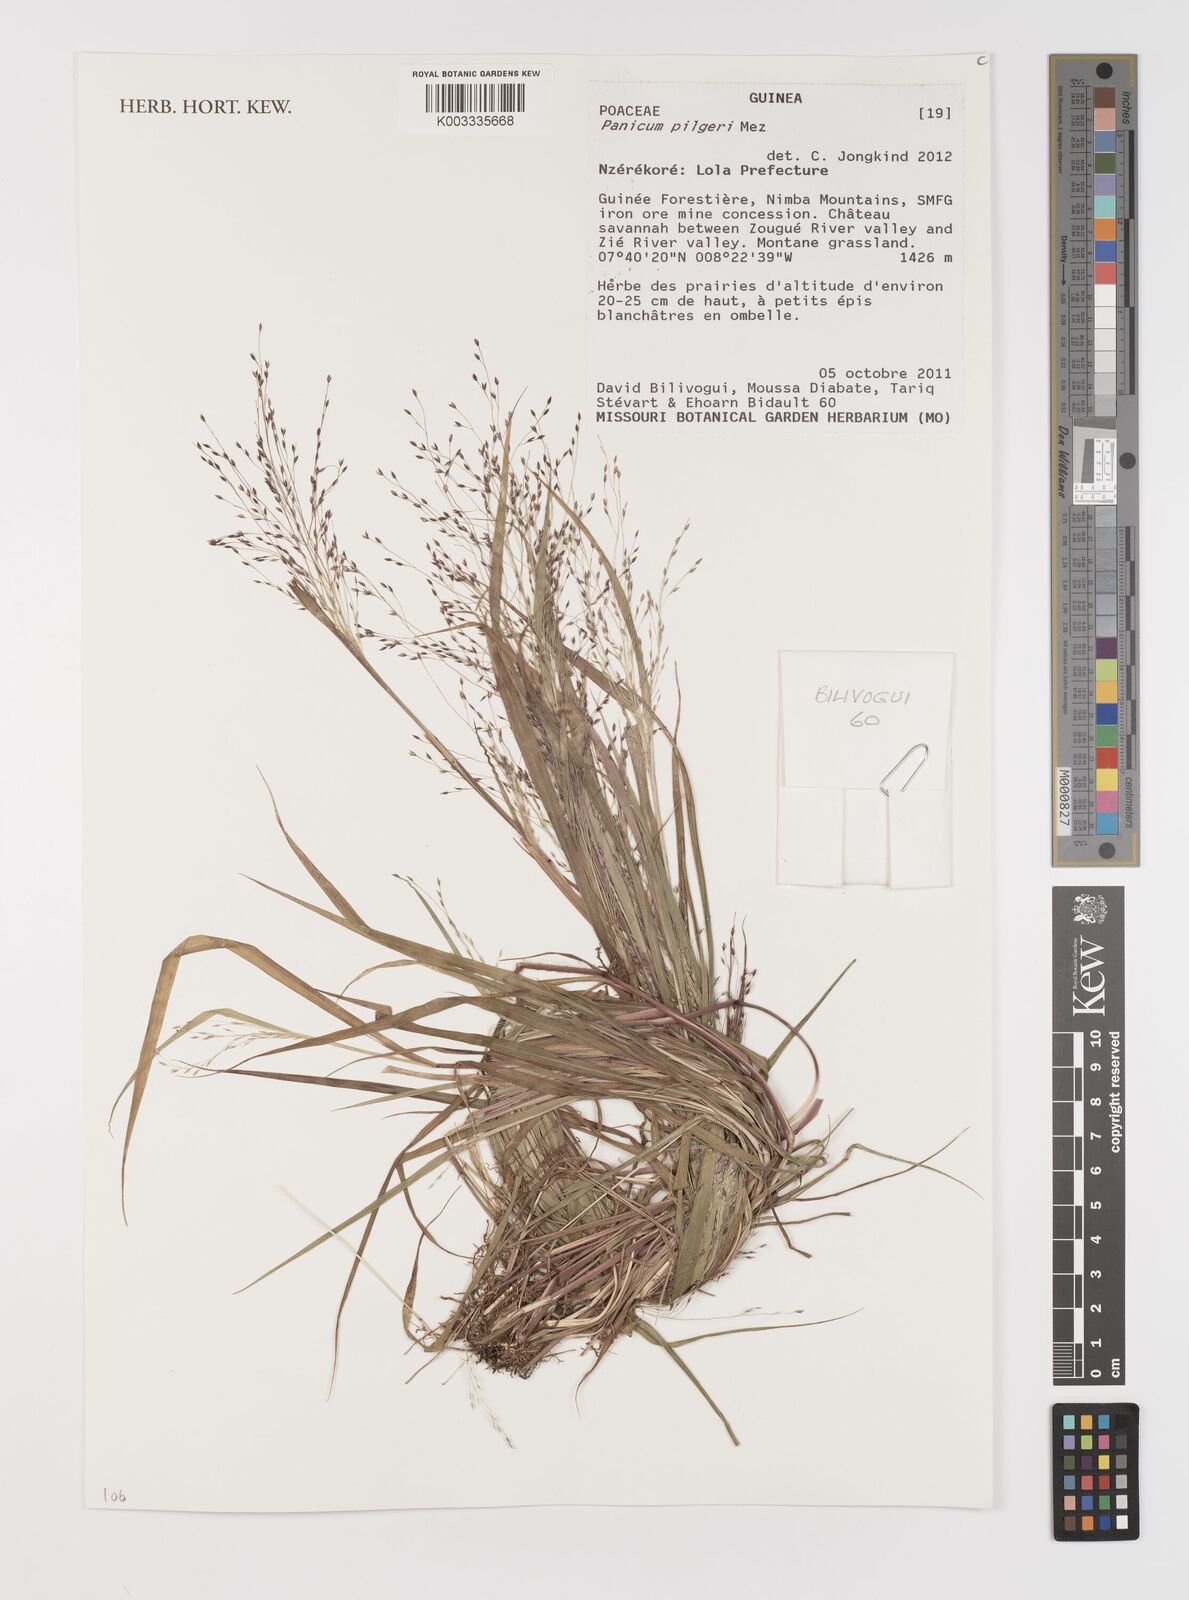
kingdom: Plantae
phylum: Tracheophyta
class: Liliopsida
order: Poales
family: Poaceae
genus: Panicum
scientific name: Panicum
